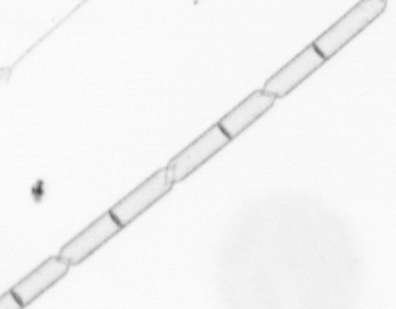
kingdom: Chromista
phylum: Ochrophyta
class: Bacillariophyceae
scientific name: Bacillariophyceae
